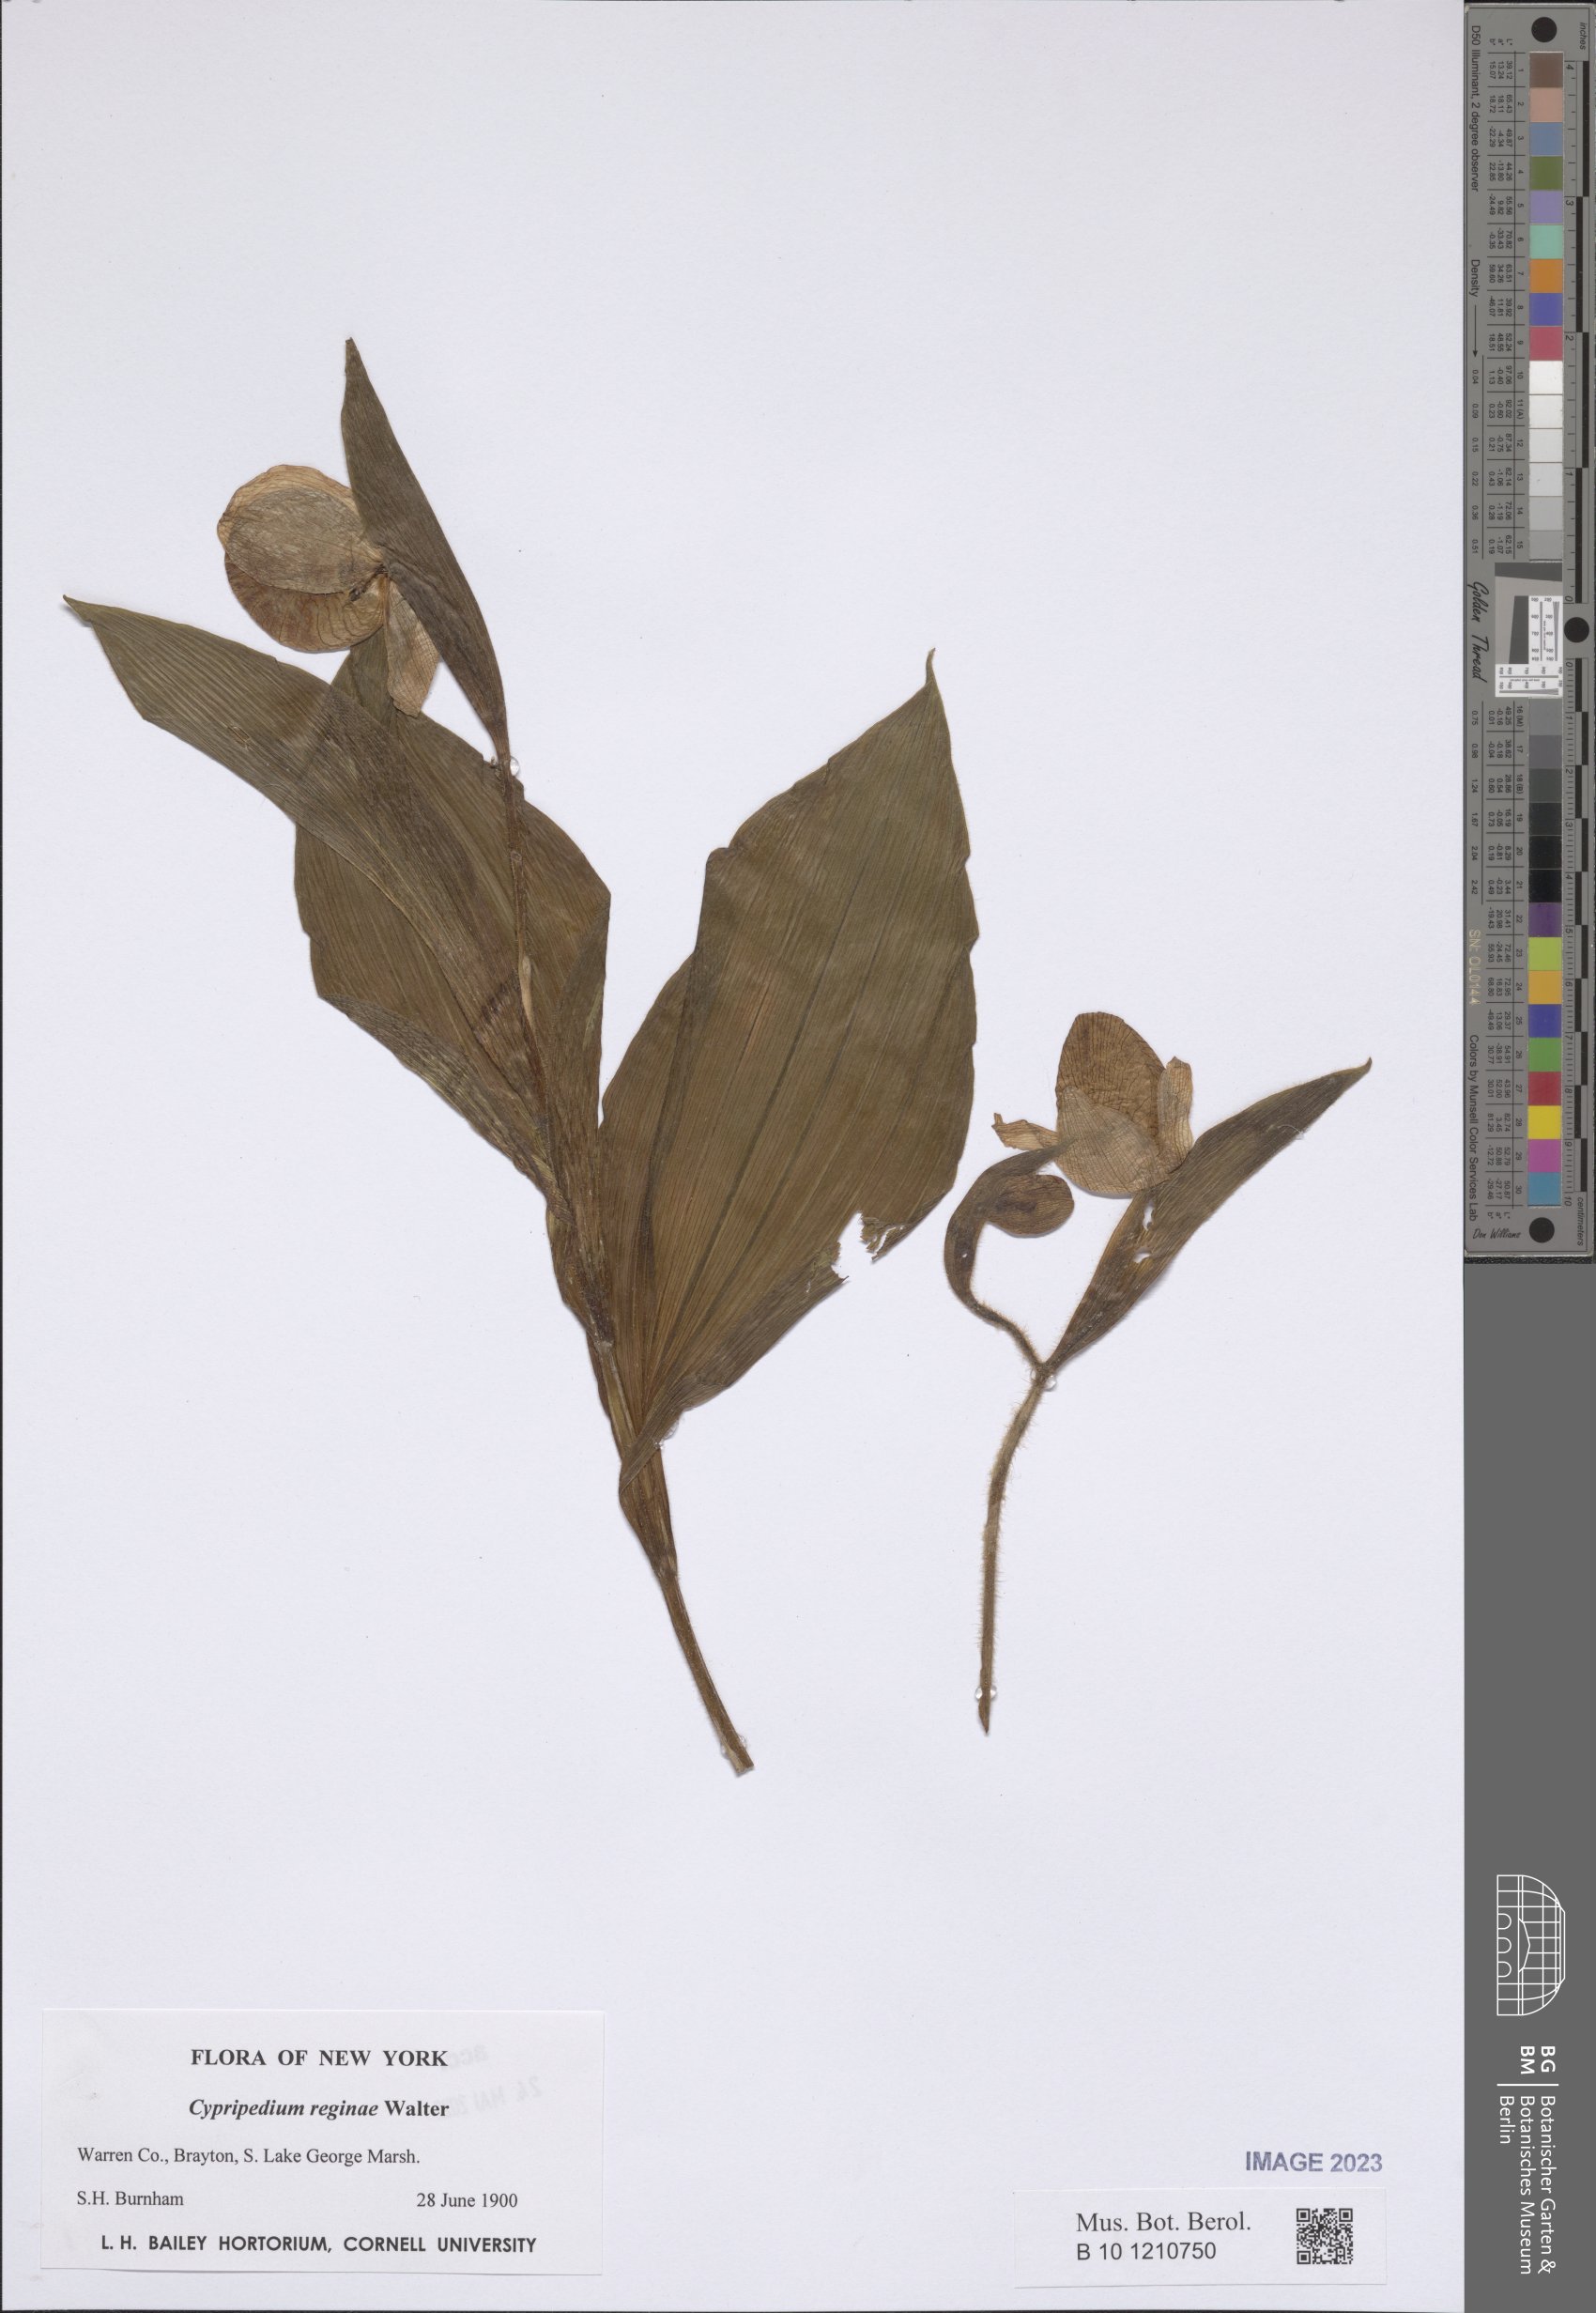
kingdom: Plantae
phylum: Tracheophyta
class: Liliopsida
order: Asparagales
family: Orchidaceae
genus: Cypripedium
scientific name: Cypripedium reginae
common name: Queen lady's-slipper
